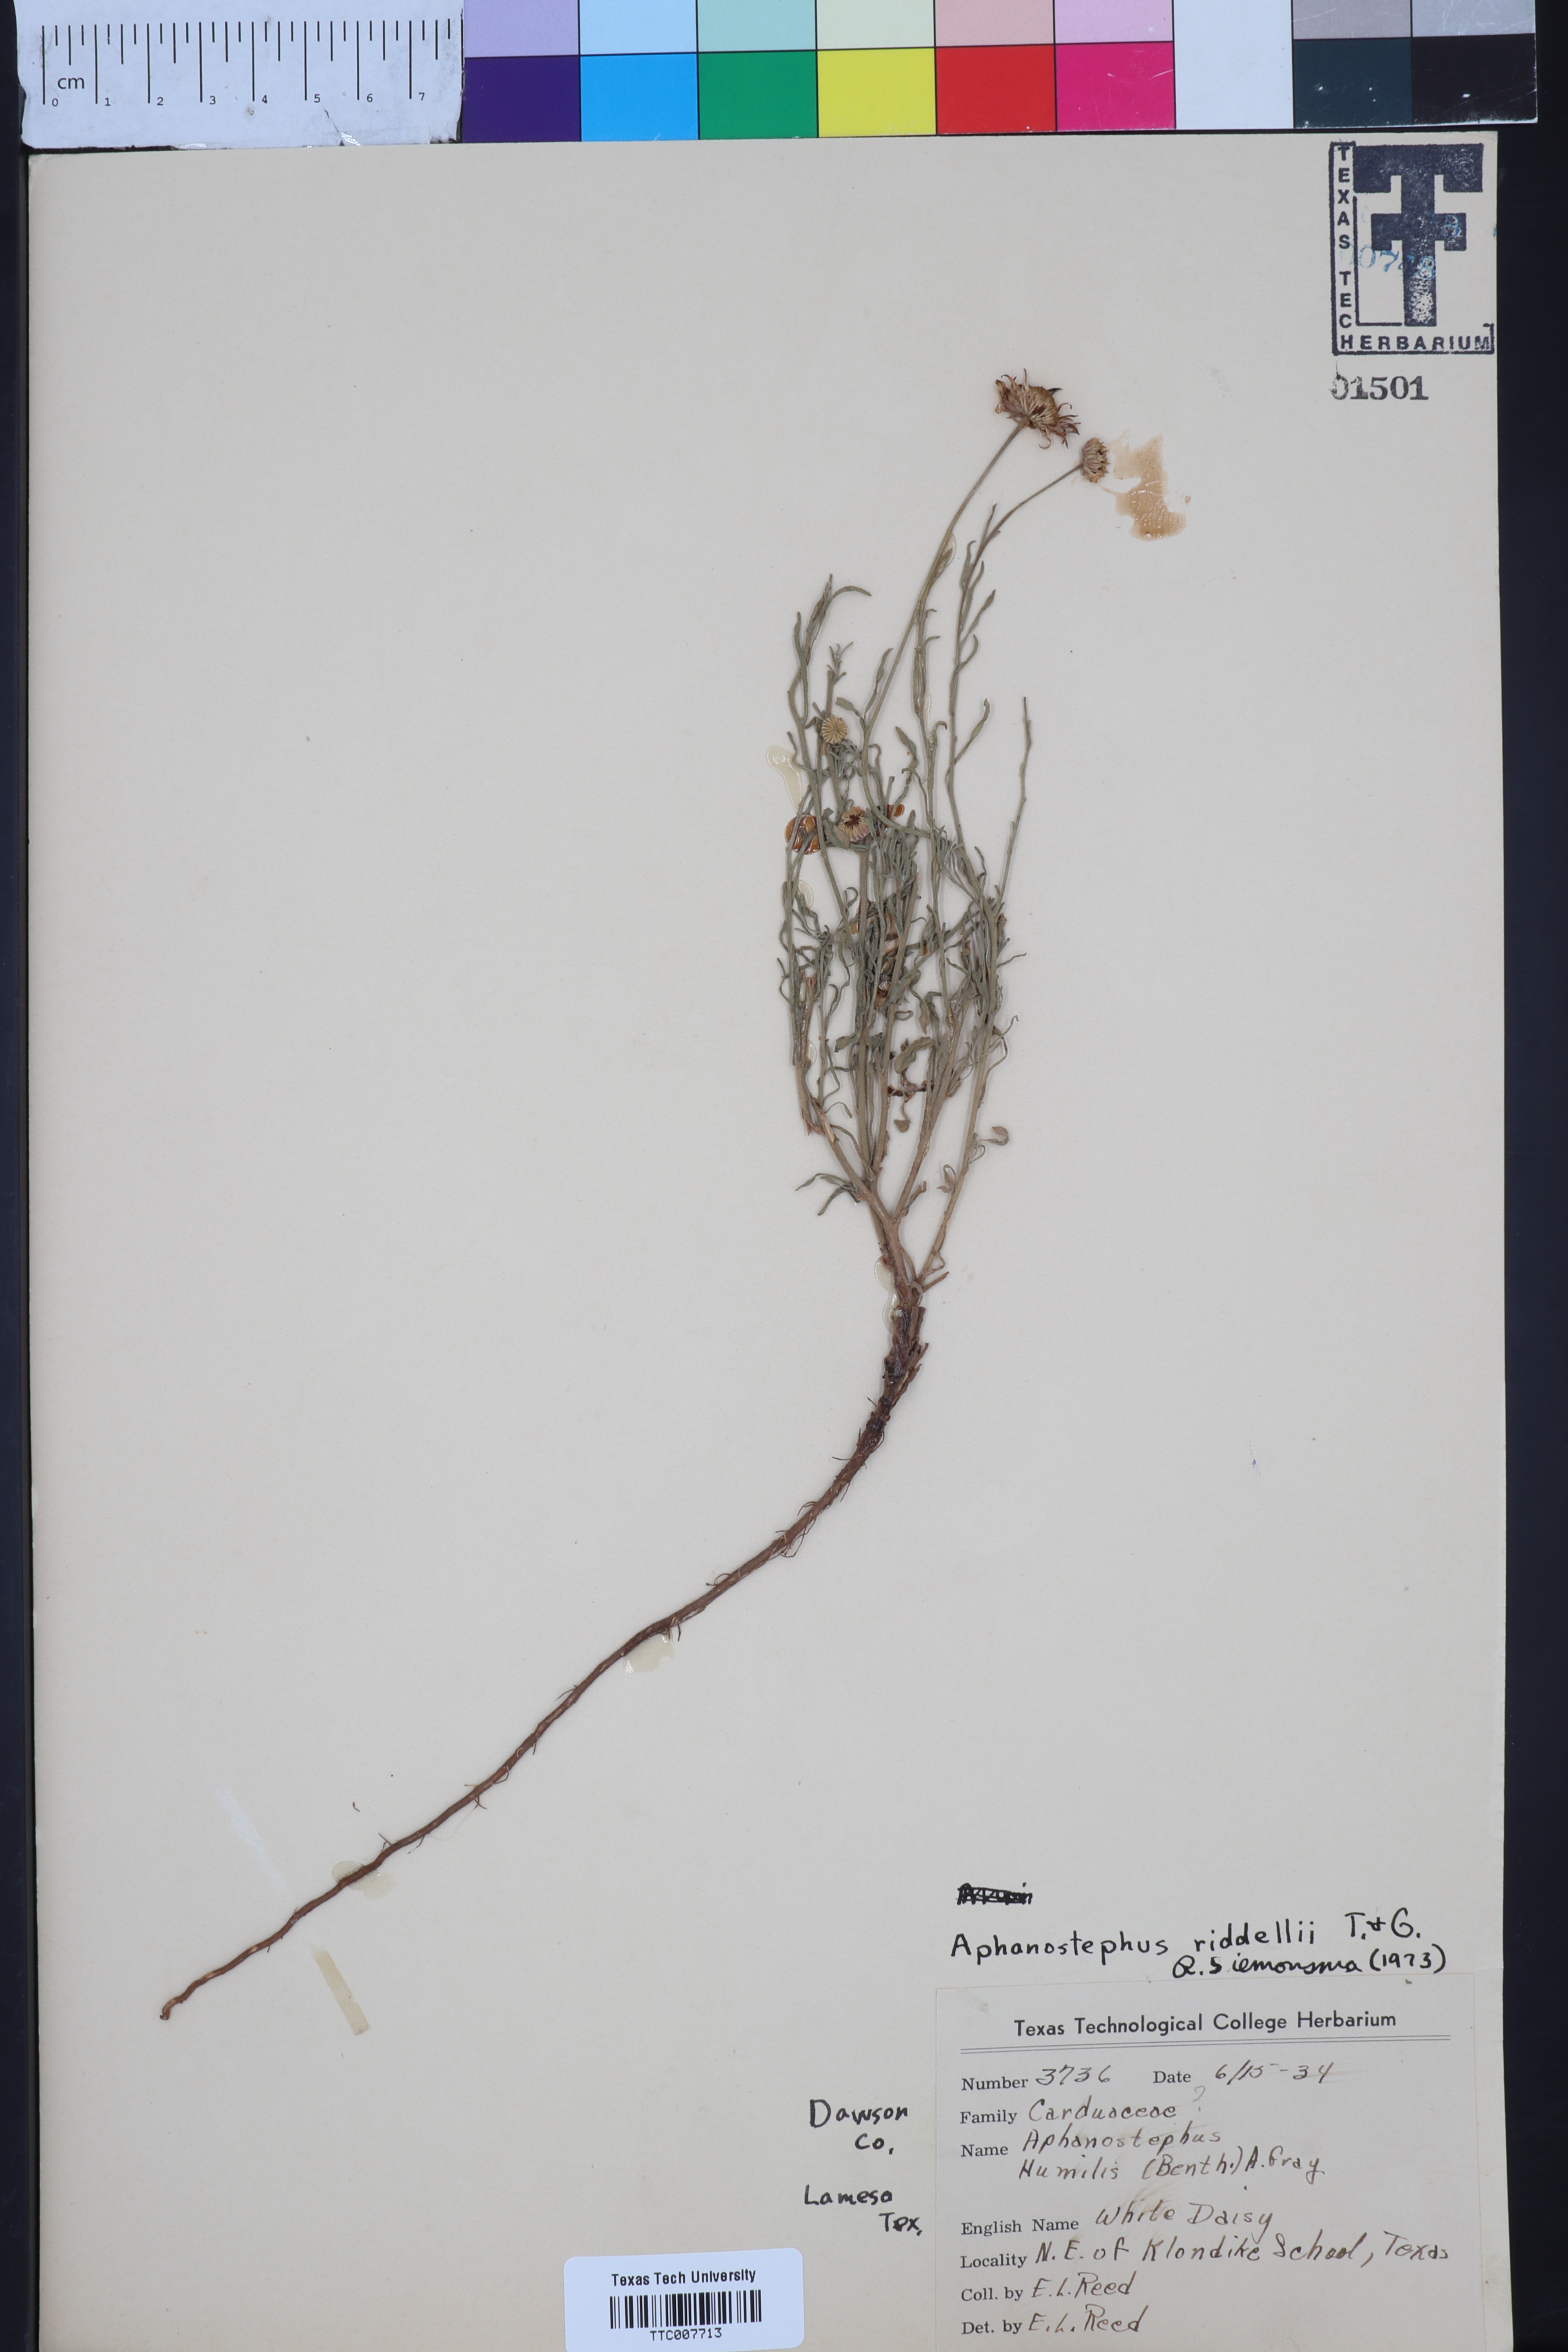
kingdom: Plantae
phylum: Tracheophyta
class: Magnoliopsida
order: Asterales
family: Asteraceae
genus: Aphanostephus
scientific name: Aphanostephus riddellii
